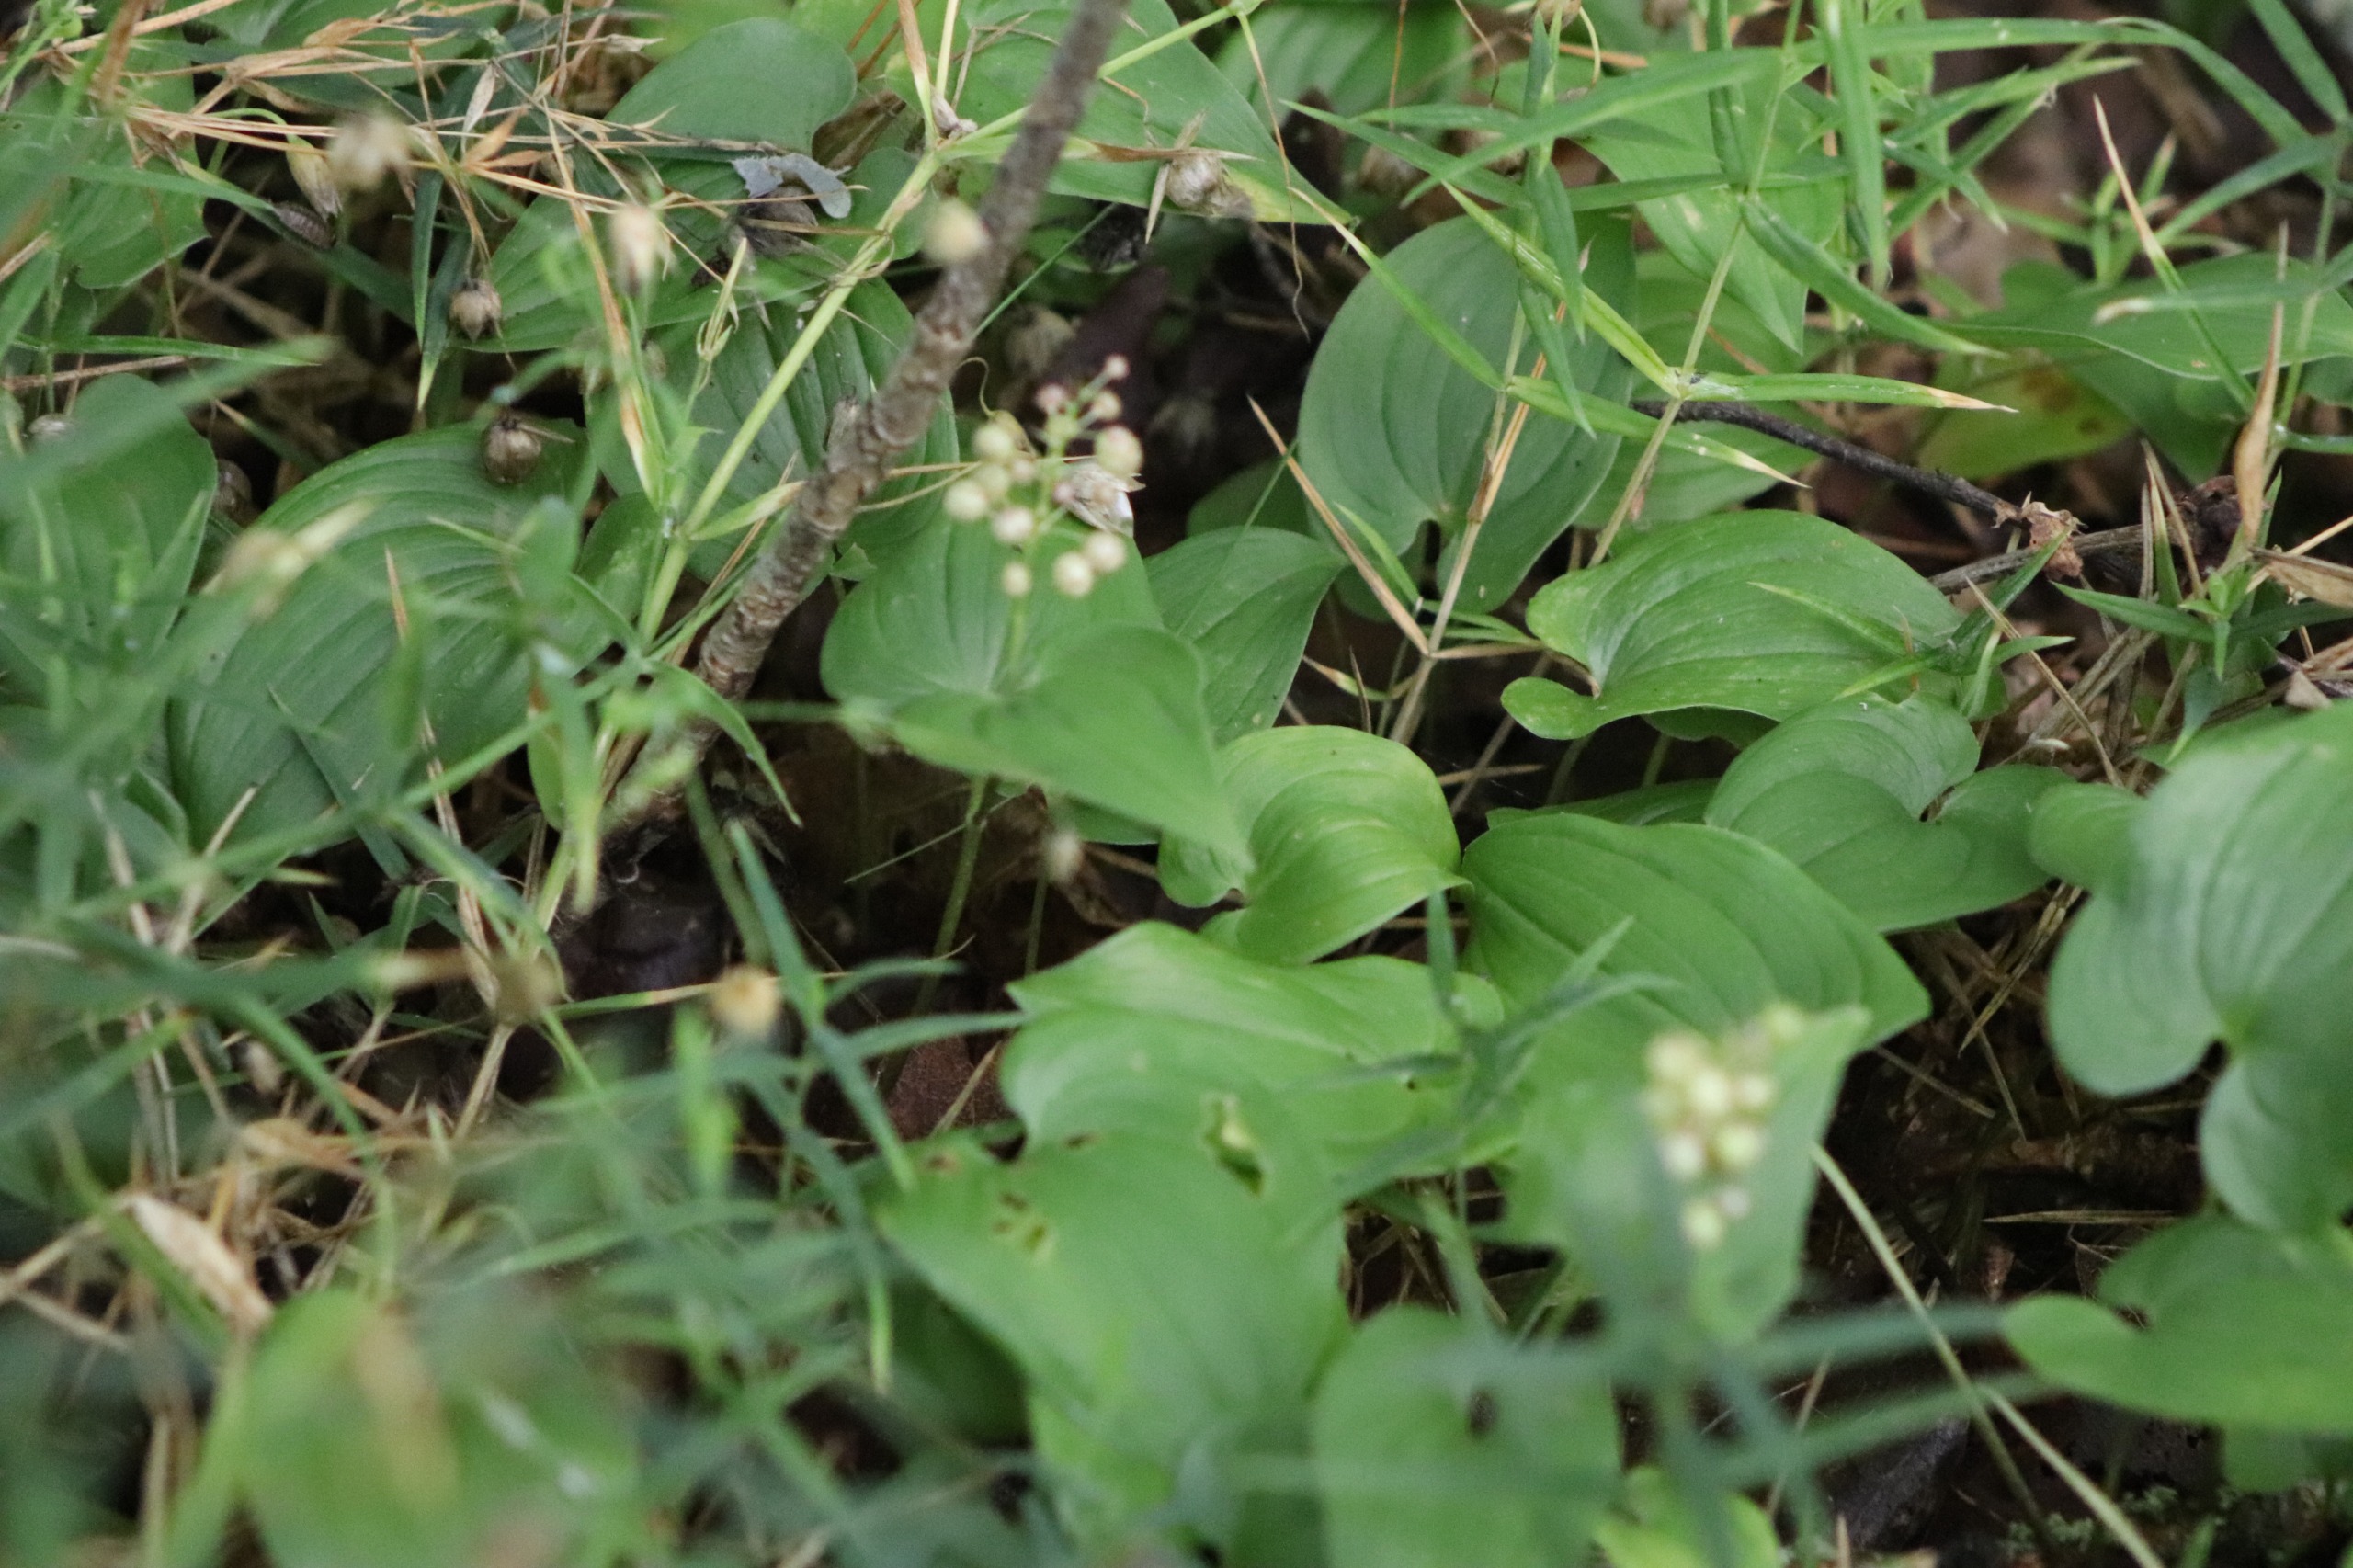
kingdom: Plantae
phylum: Tracheophyta
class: Liliopsida
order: Asparagales
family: Asparagaceae
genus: Maianthemum
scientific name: Maianthemum bifolium
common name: Majblomst
